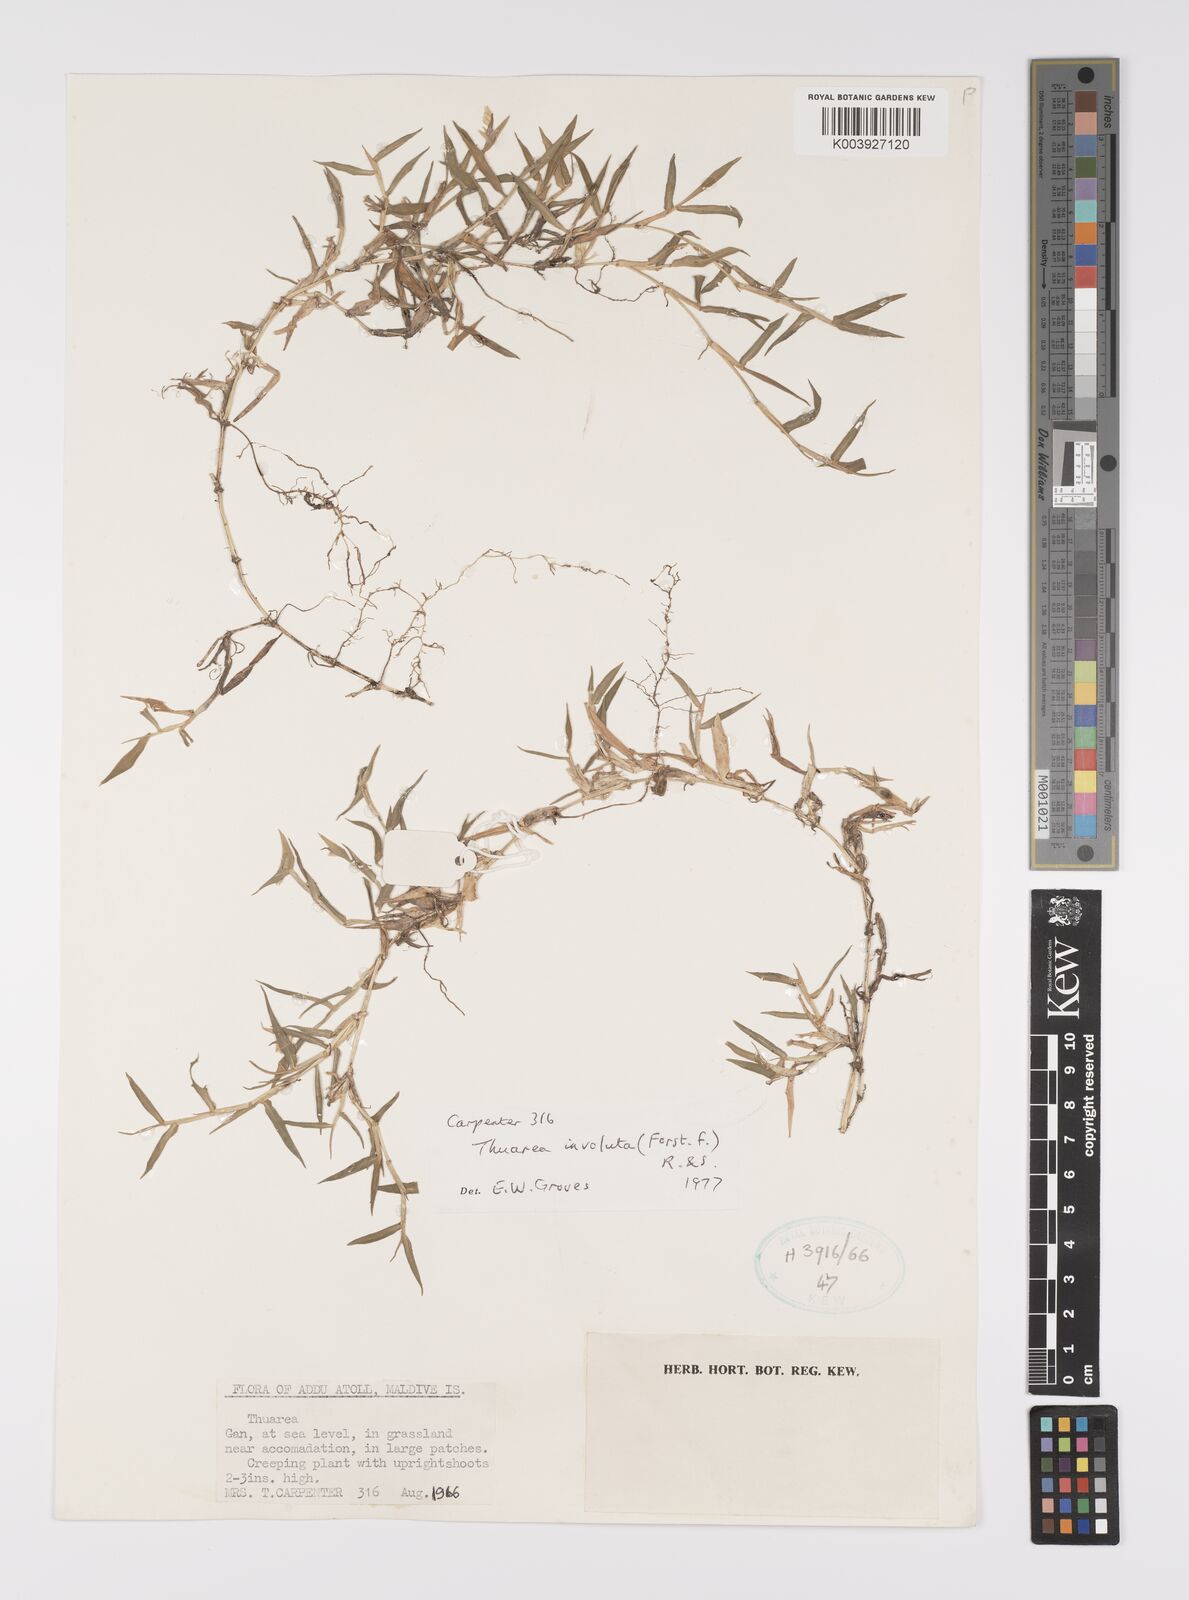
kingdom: Plantae
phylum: Tracheophyta
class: Liliopsida
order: Poales
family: Poaceae
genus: Thuarea
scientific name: Thuarea involuta
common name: Tropical beach grass
